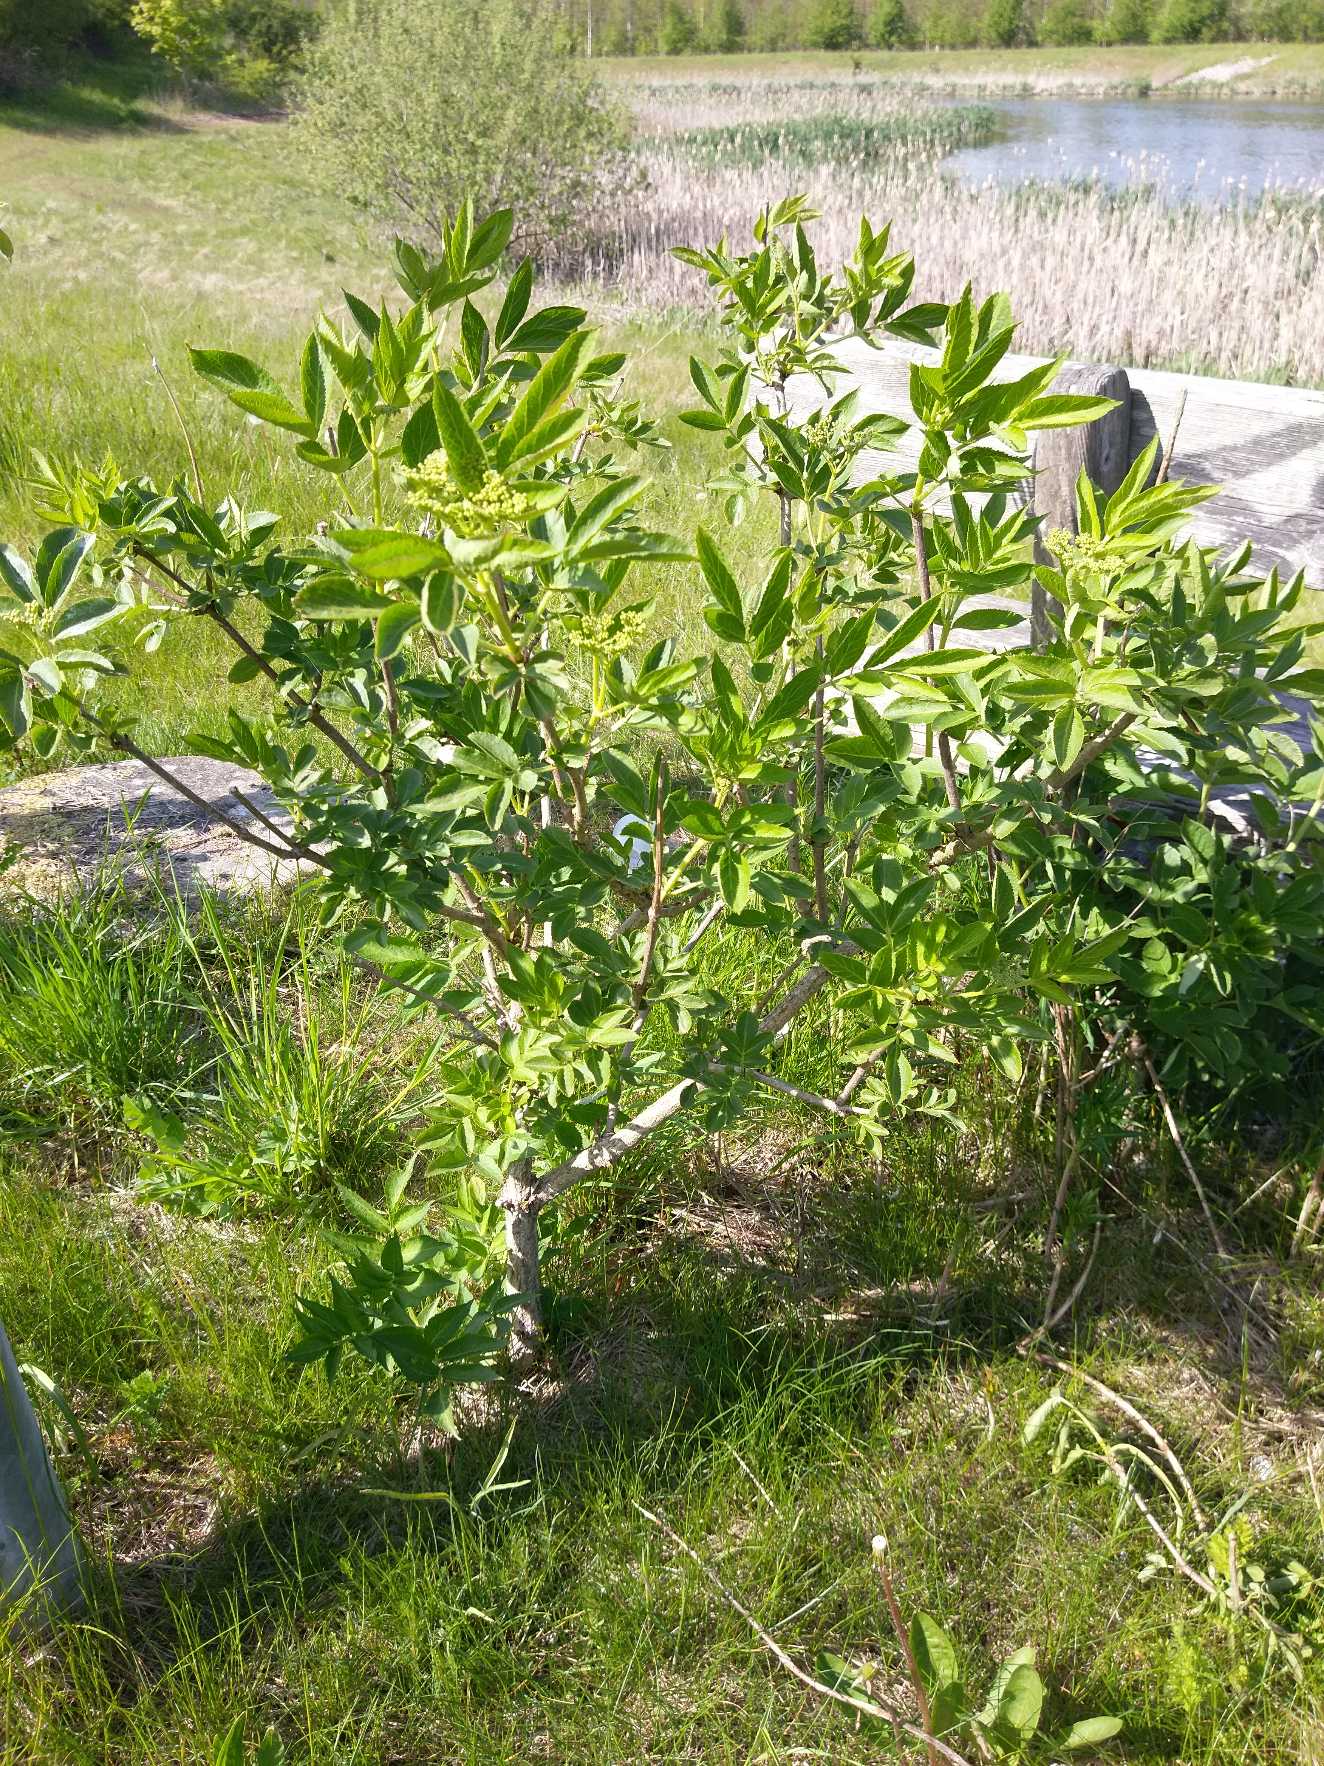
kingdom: Plantae
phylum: Tracheophyta
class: Magnoliopsida
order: Dipsacales
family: Viburnaceae
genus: Sambucus
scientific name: Sambucus nigra
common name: Almindelig hyld
